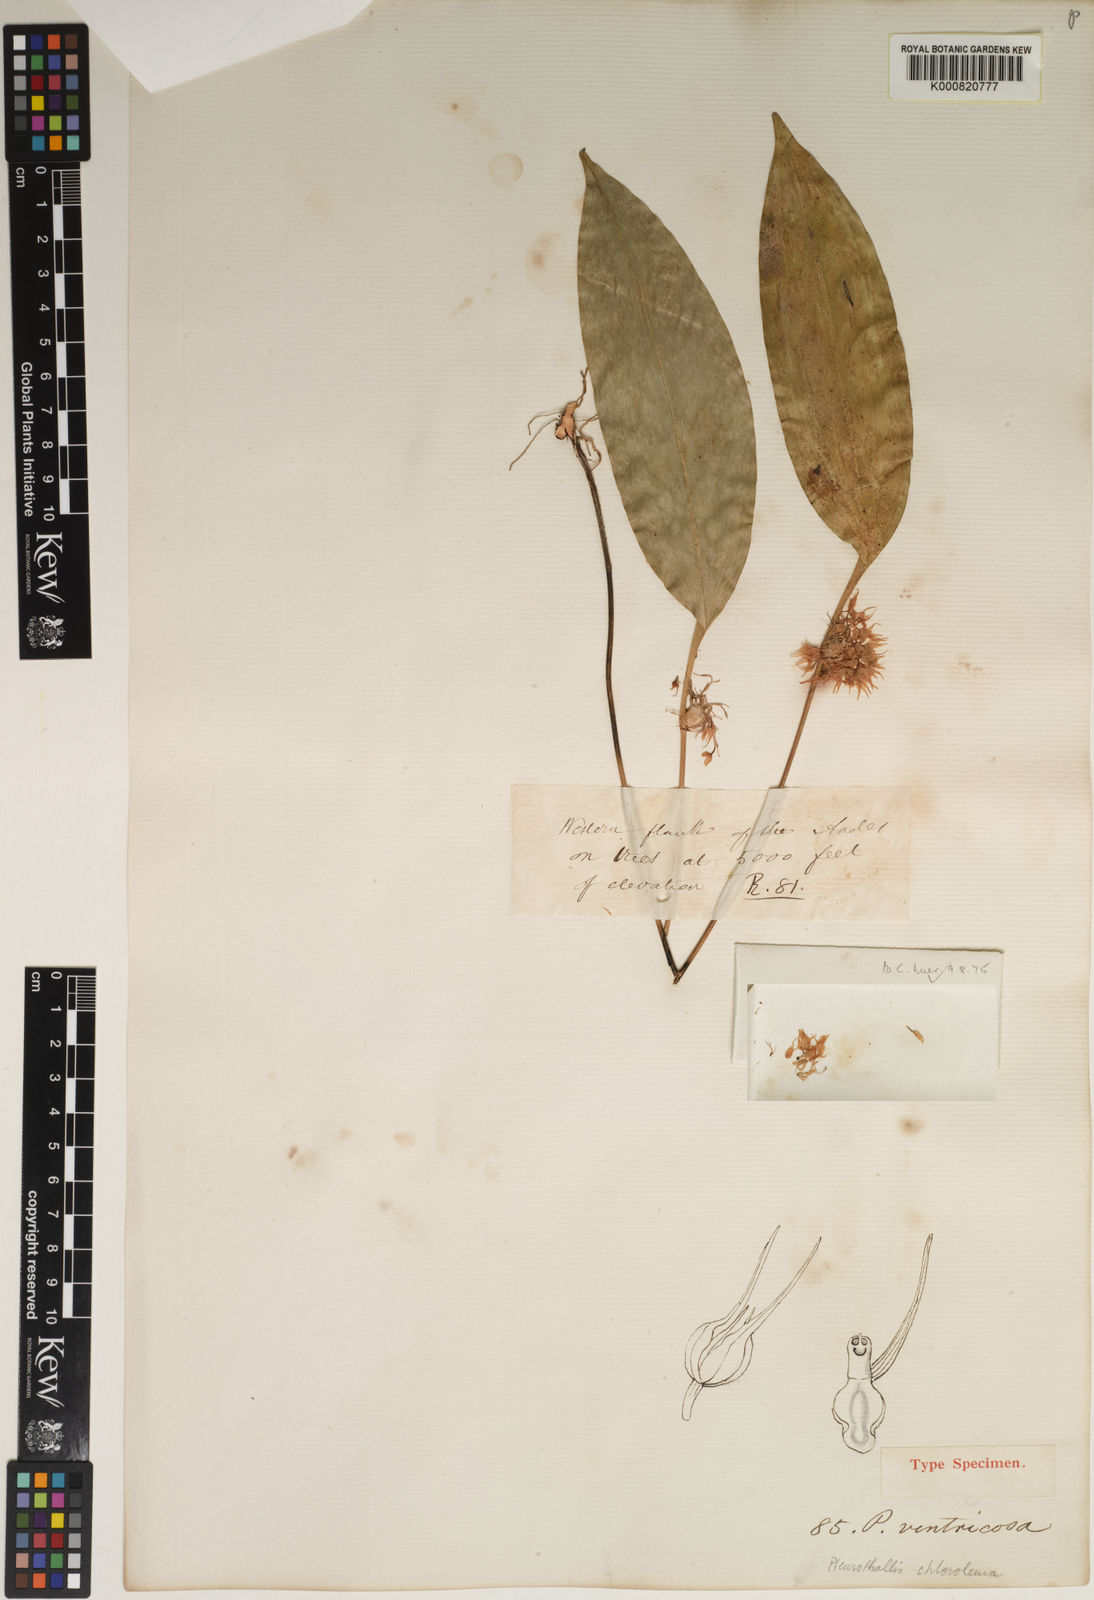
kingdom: Plantae
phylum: Tracheophyta
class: Liliopsida
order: Asparagales
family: Orchidaceae
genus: Pleurothallis
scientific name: Pleurothallis chloroleuca
